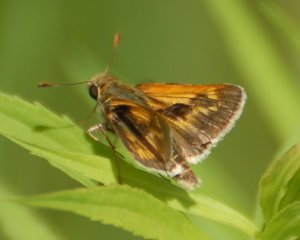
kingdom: Animalia
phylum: Arthropoda
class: Insecta
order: Lepidoptera
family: Hesperiidae
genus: Polites
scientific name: Polites
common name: Long Dash Skipper
